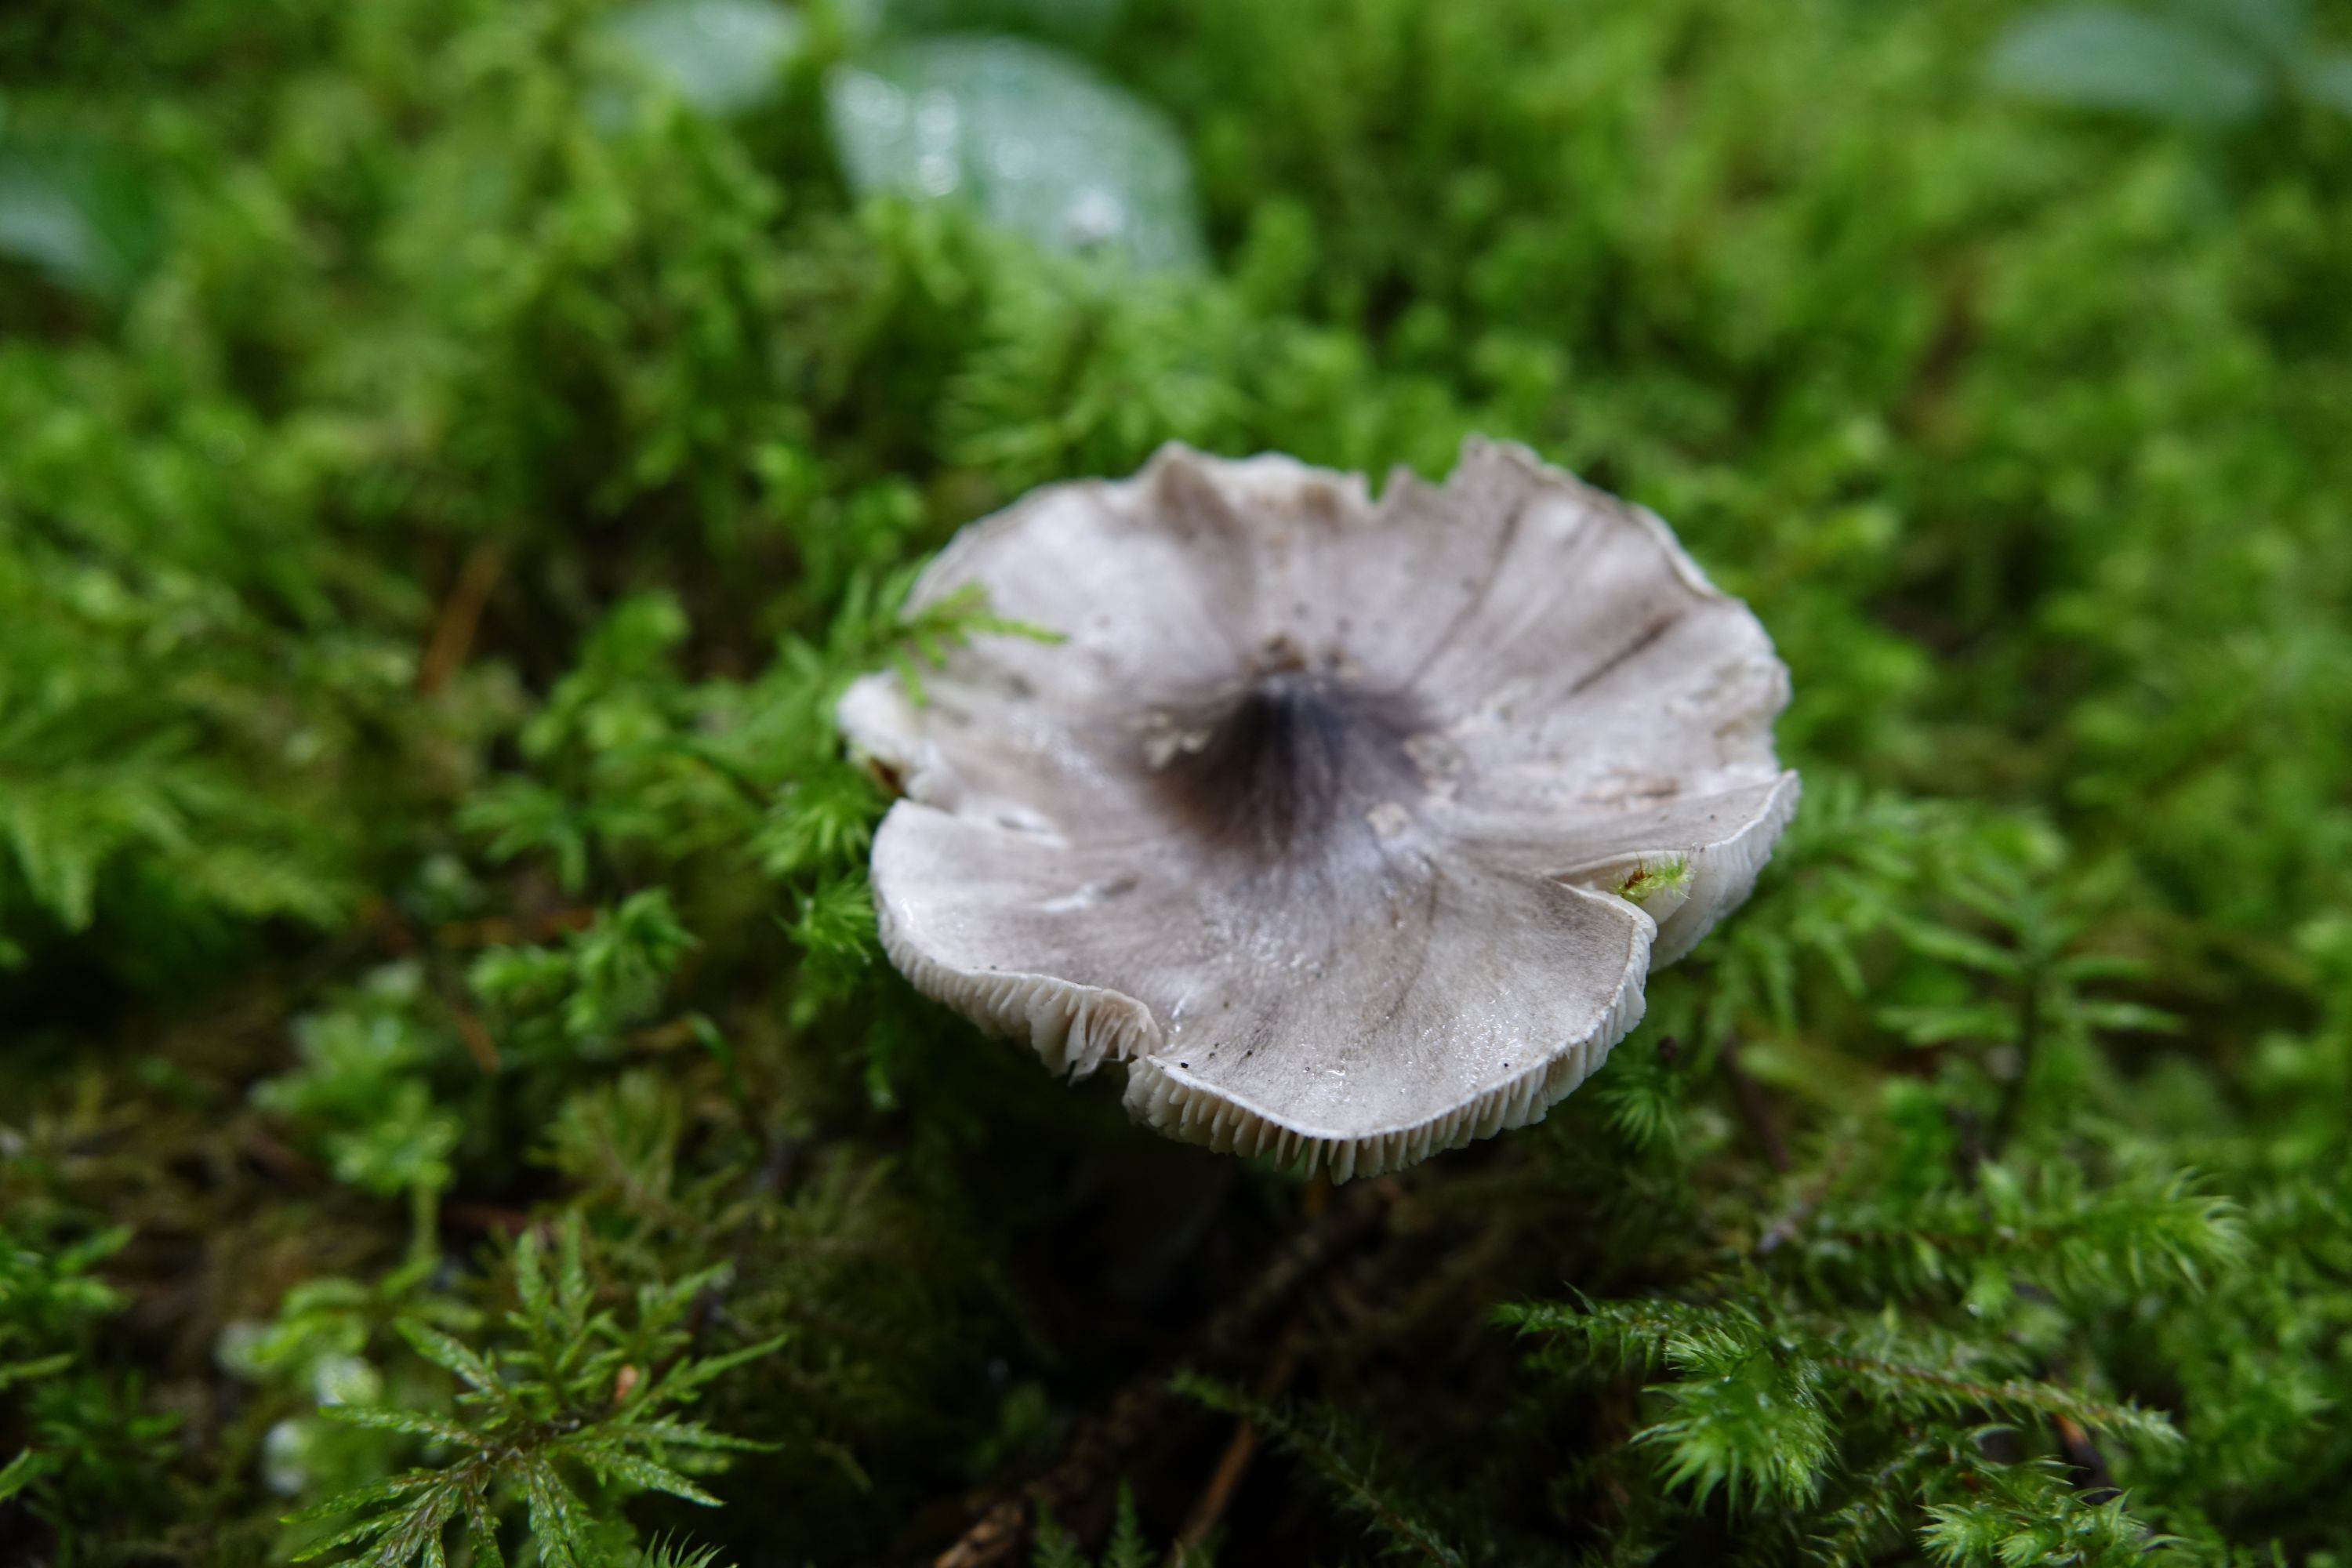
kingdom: Fungi
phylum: Basidiomycota
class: Agaricomycetes
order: Agaricales
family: Tricholomataceae
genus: Tricholoma
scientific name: Tricholoma virgatum
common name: Ashen knight
